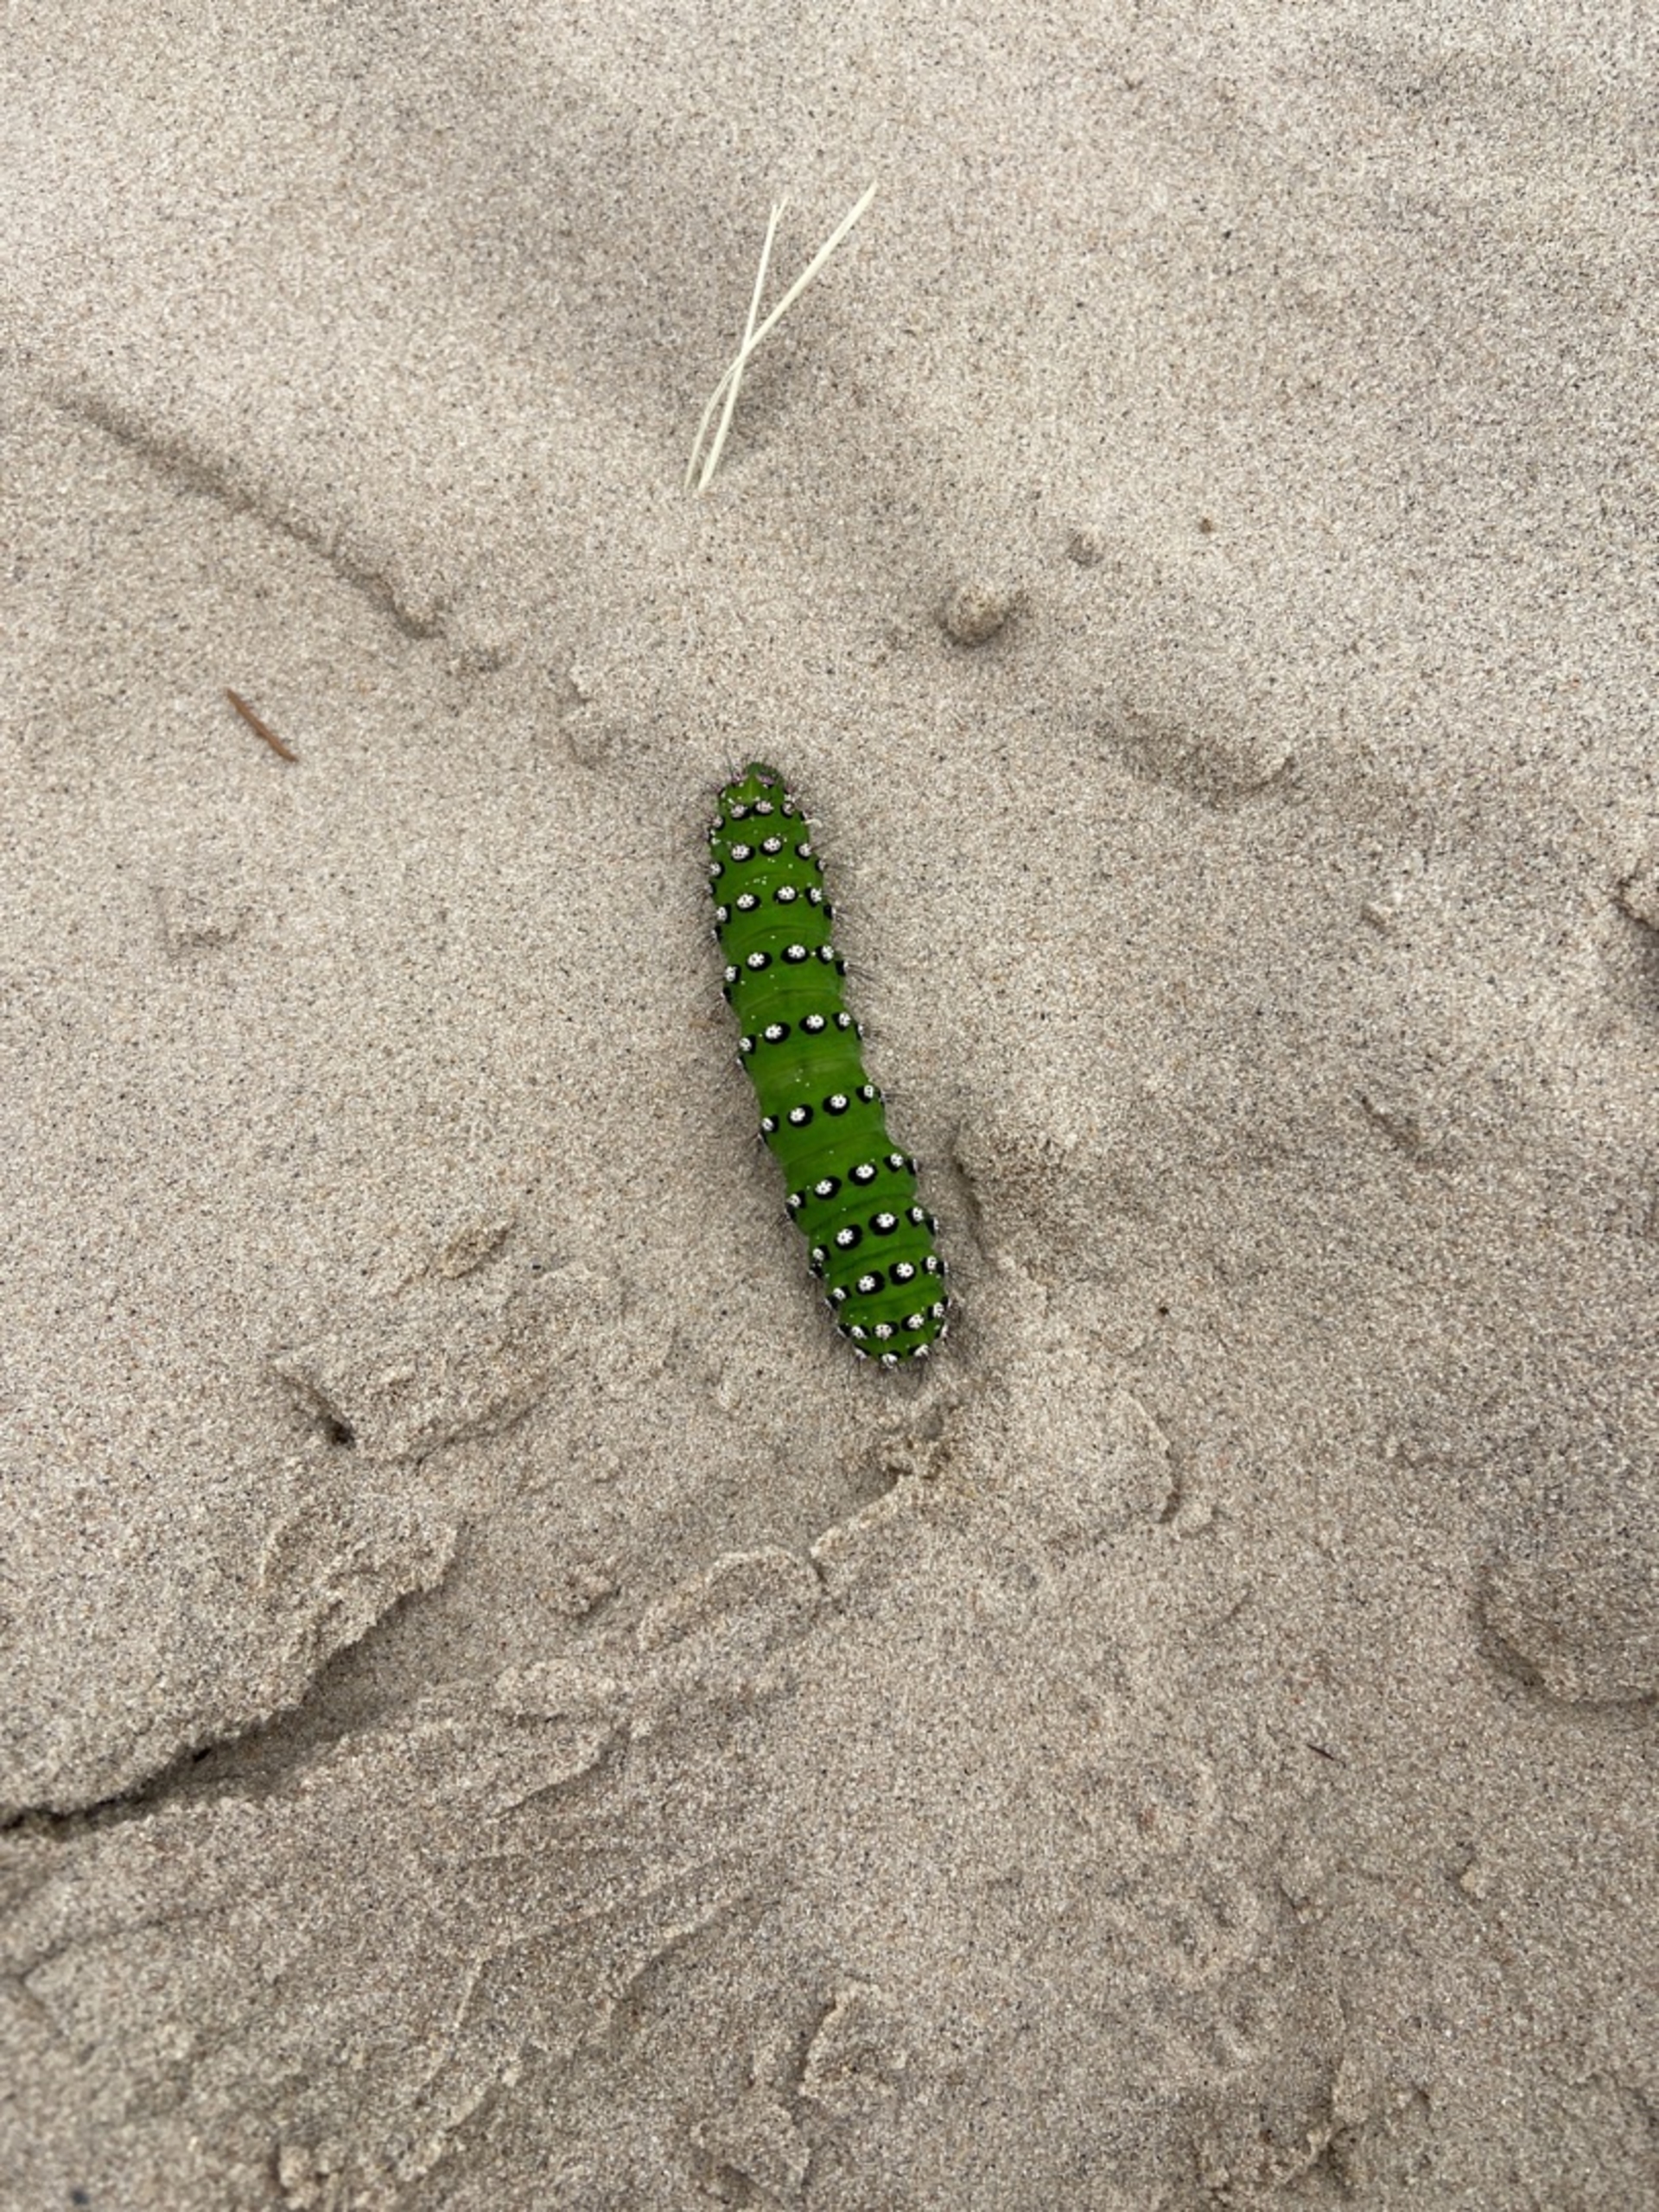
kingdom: Animalia
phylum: Arthropoda
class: Insecta
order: Lepidoptera
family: Saturniidae
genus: Saturnia
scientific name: Saturnia pavonia
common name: Lille natpåfugleøje
